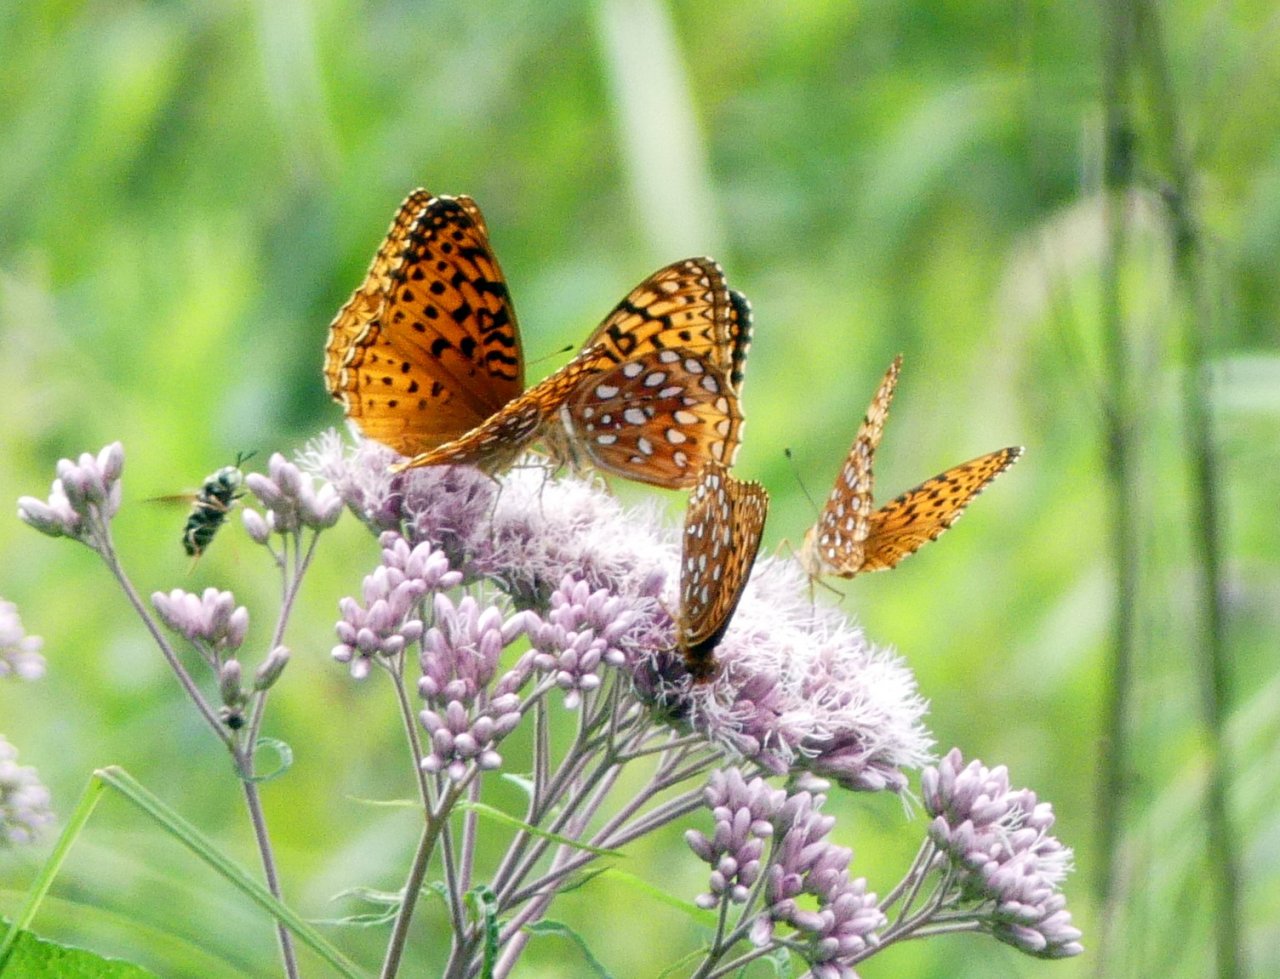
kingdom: Animalia
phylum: Arthropoda
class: Insecta
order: Lepidoptera
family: Nymphalidae
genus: Speyeria
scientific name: Speyeria aphrodite
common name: Aphrodite Fritillary
